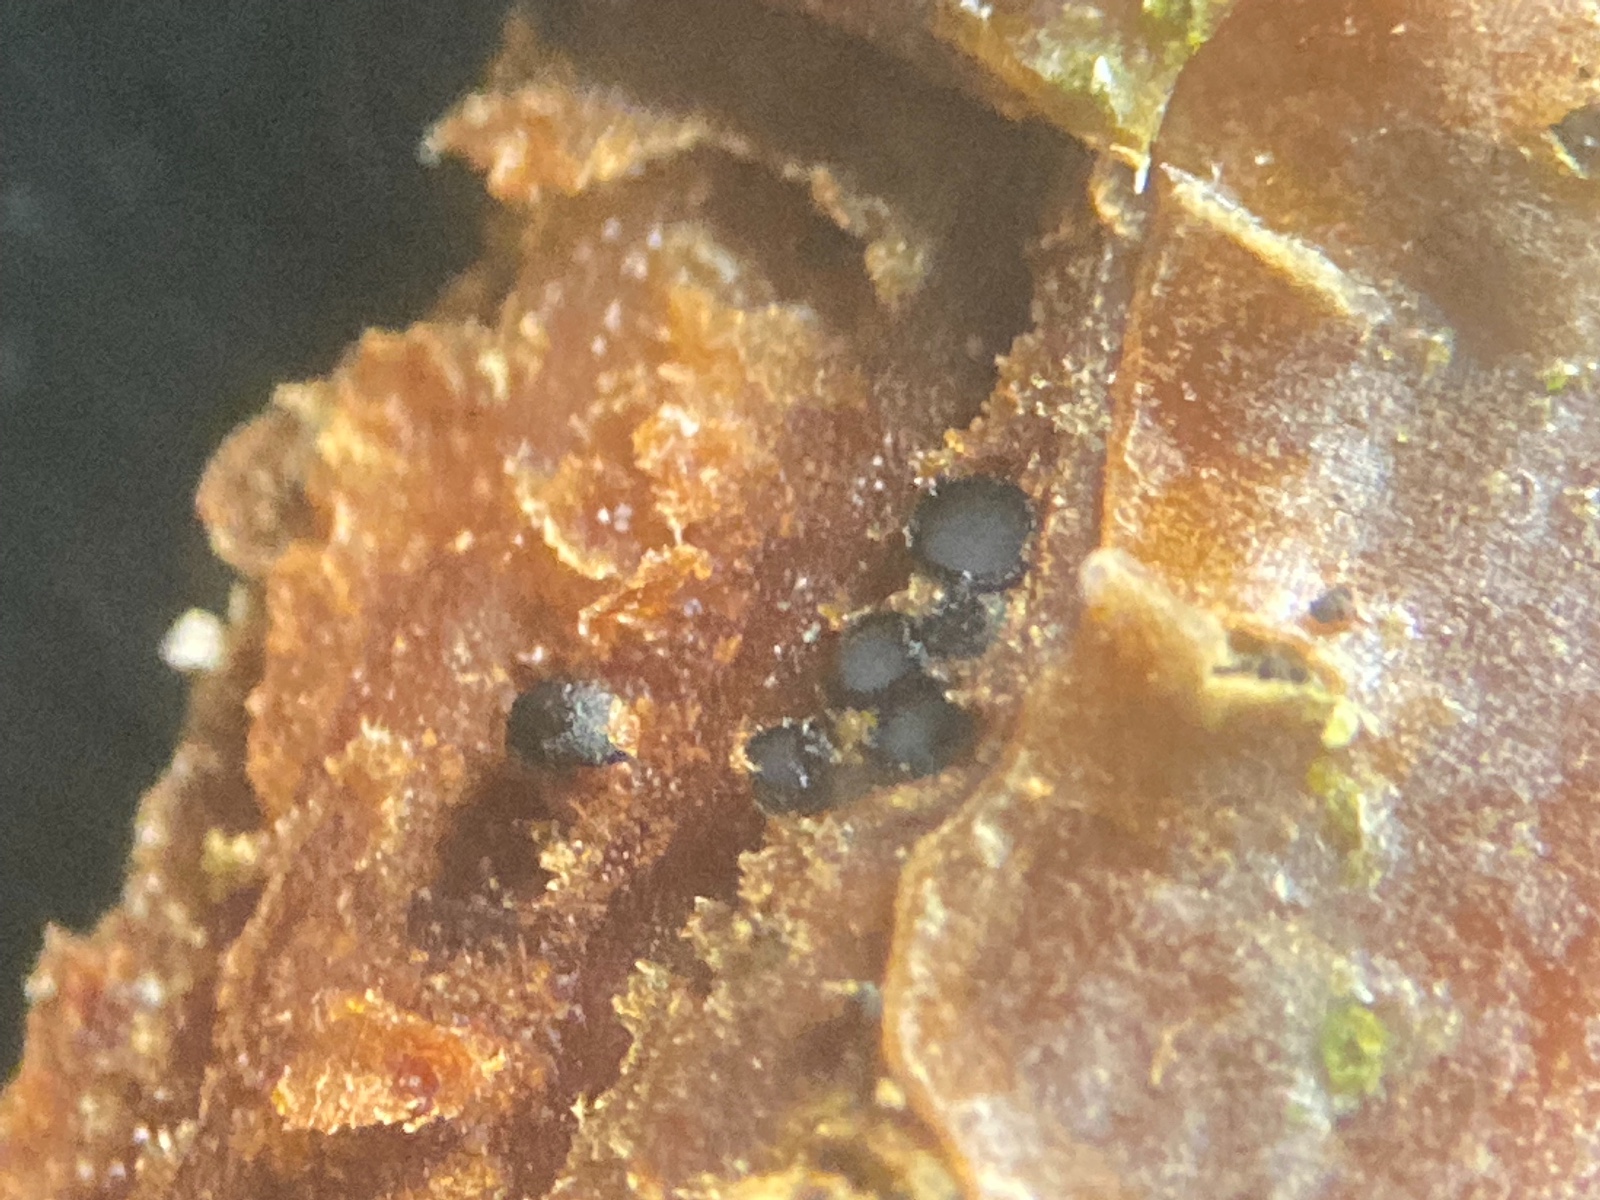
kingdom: Fungi
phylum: Ascomycota
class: Sordariomycetes
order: Diaporthales
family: Gnomoniaceae
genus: Plagiostoma
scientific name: Plagiostoma salicellum
